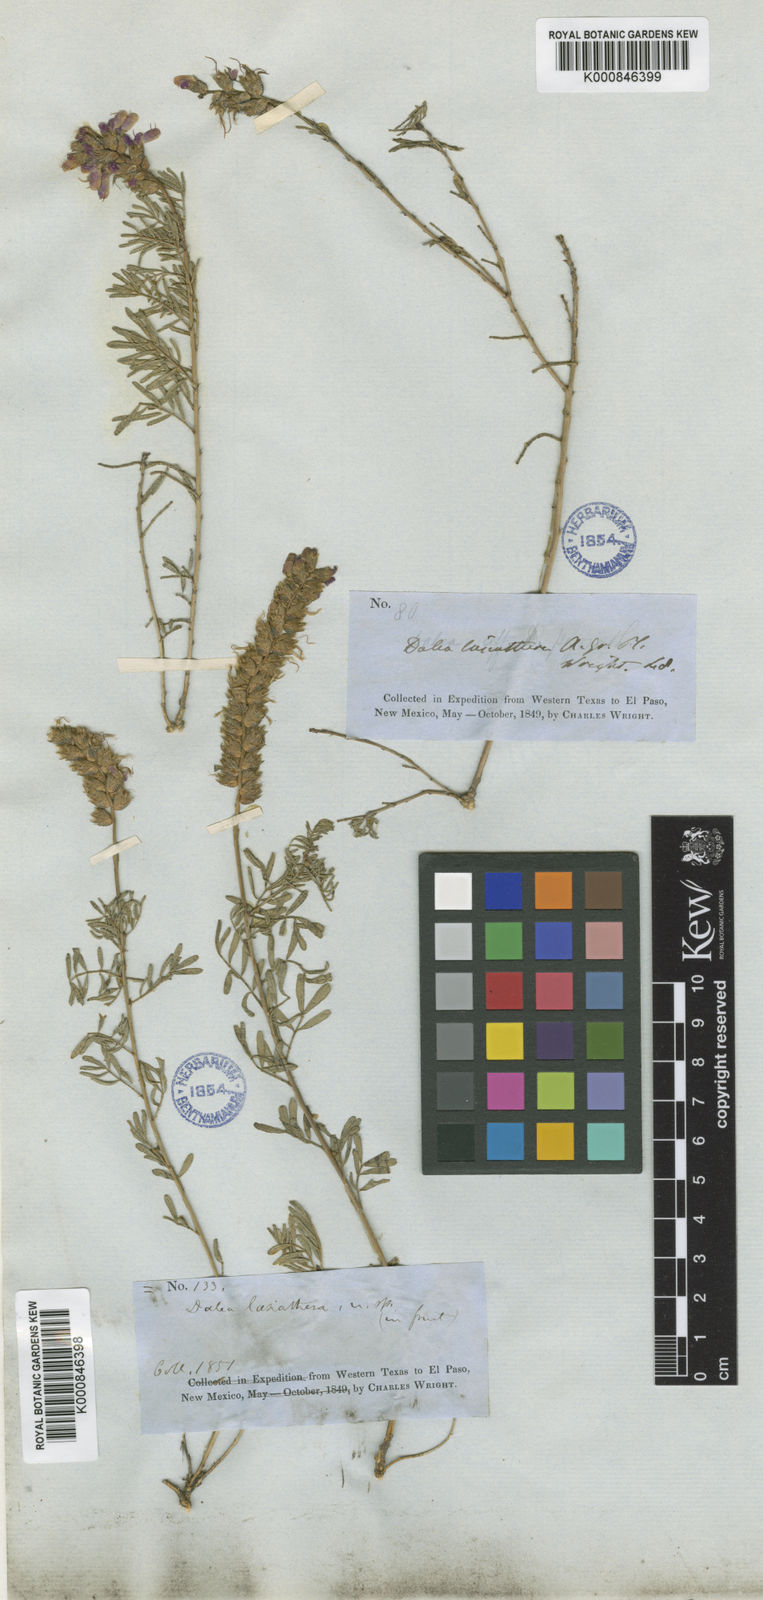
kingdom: Plantae
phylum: Tracheophyta
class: Magnoliopsida
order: Fabales
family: Fabaceae
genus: Dalea
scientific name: Dalea lasiathera
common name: Purple prairie-clover
